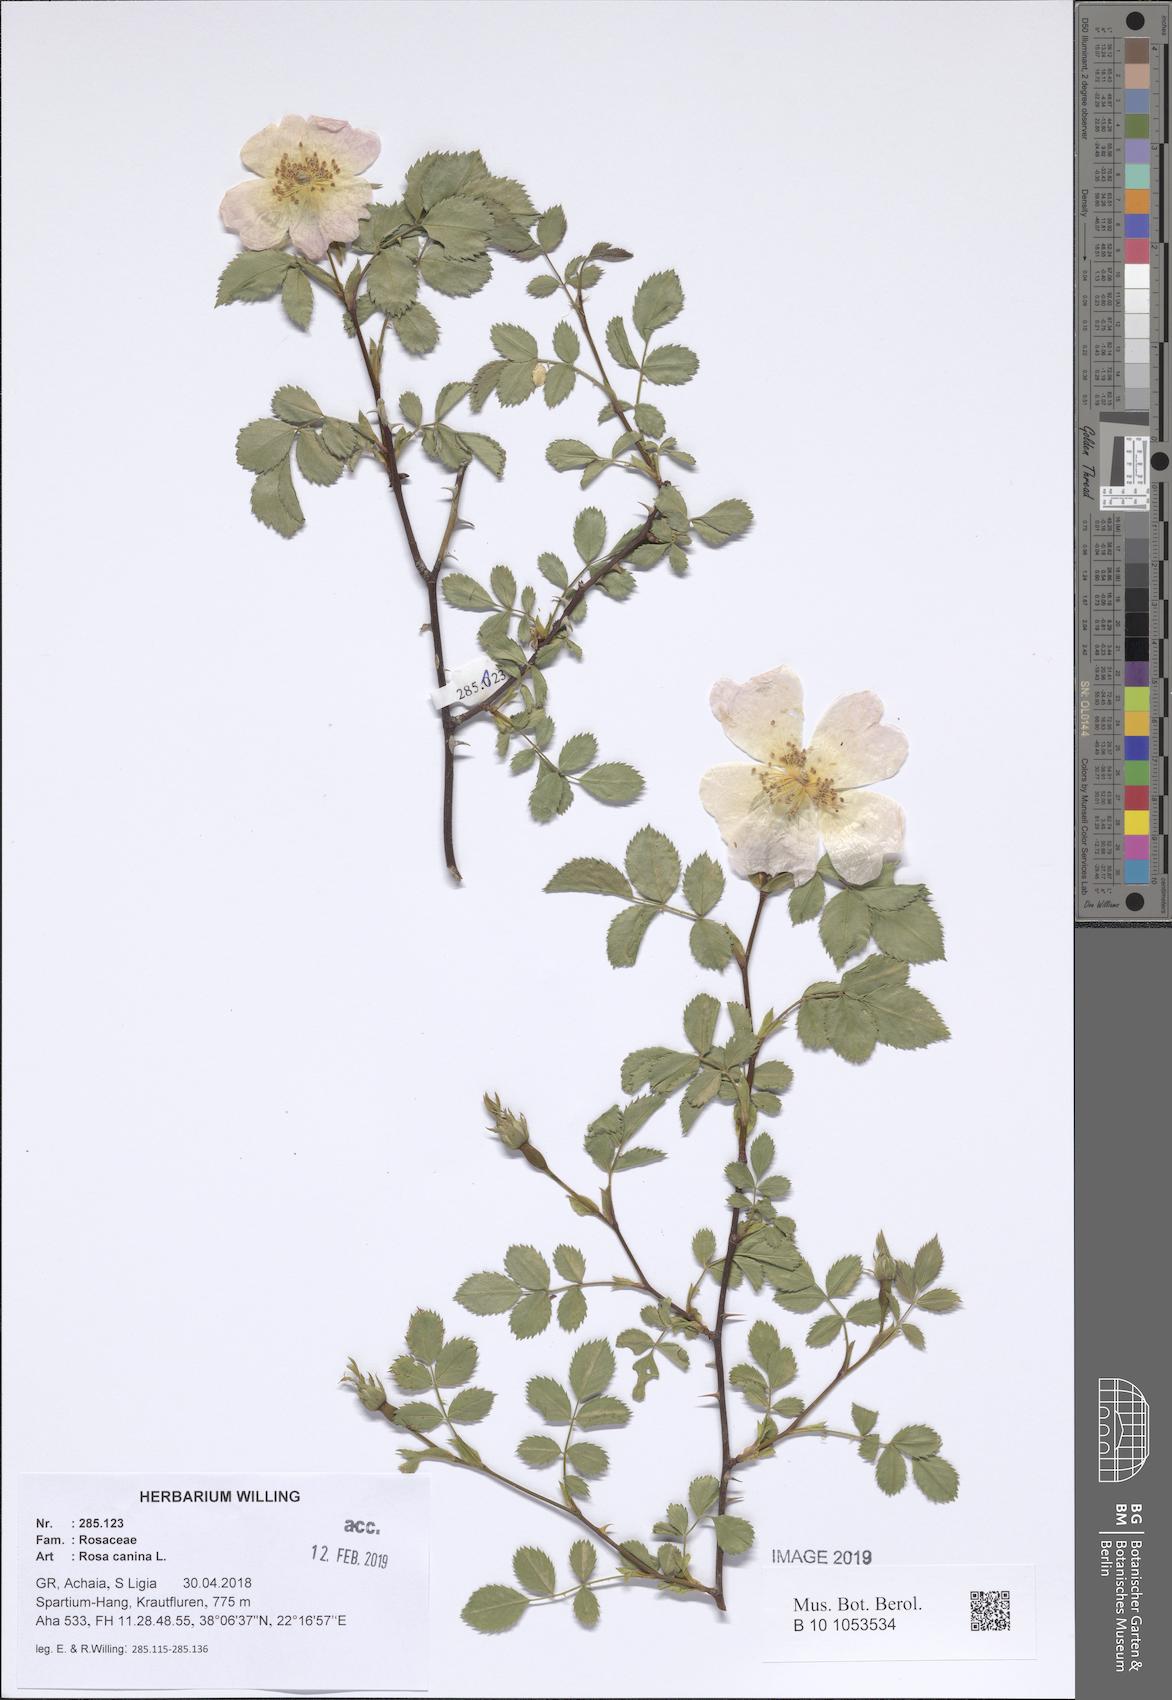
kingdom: Plantae
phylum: Tracheophyta
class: Magnoliopsida
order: Rosales
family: Rosaceae
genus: Rosa
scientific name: Rosa canina
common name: Dog rose
